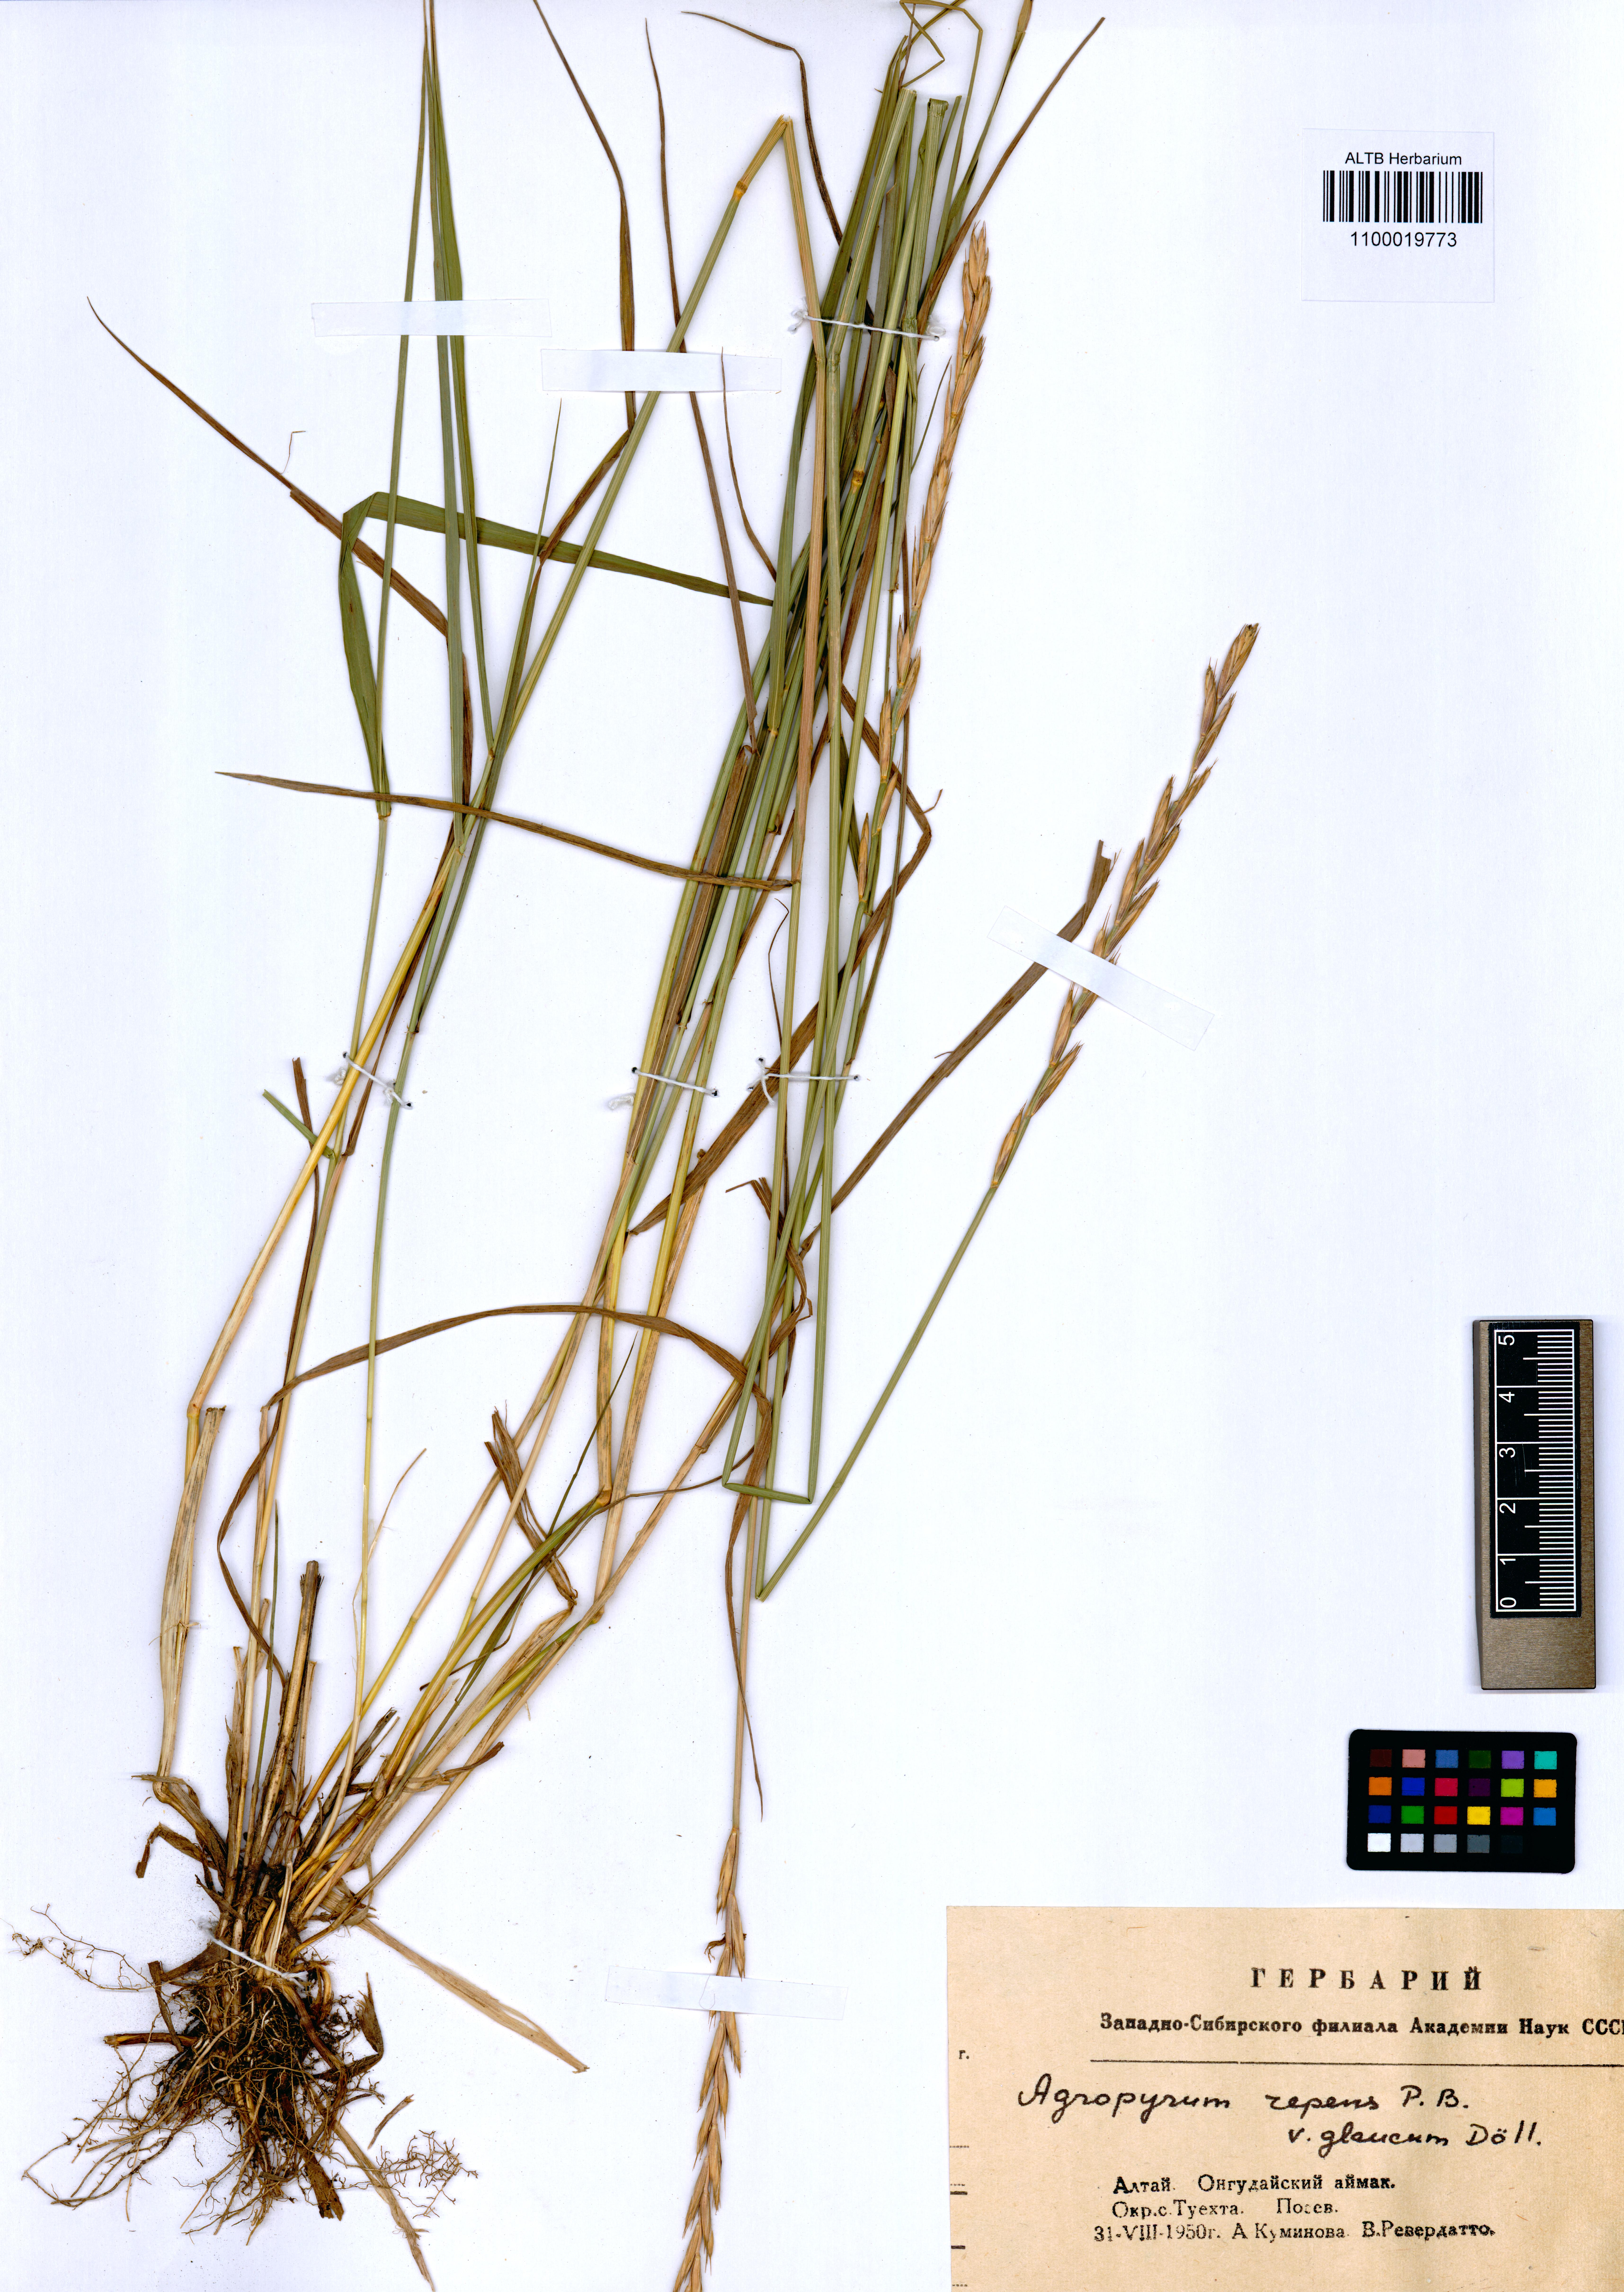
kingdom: Plantae
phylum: Tracheophyta
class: Liliopsida
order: Poales
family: Poaceae
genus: Elymus
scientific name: Elymus repens
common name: Quackgrass
